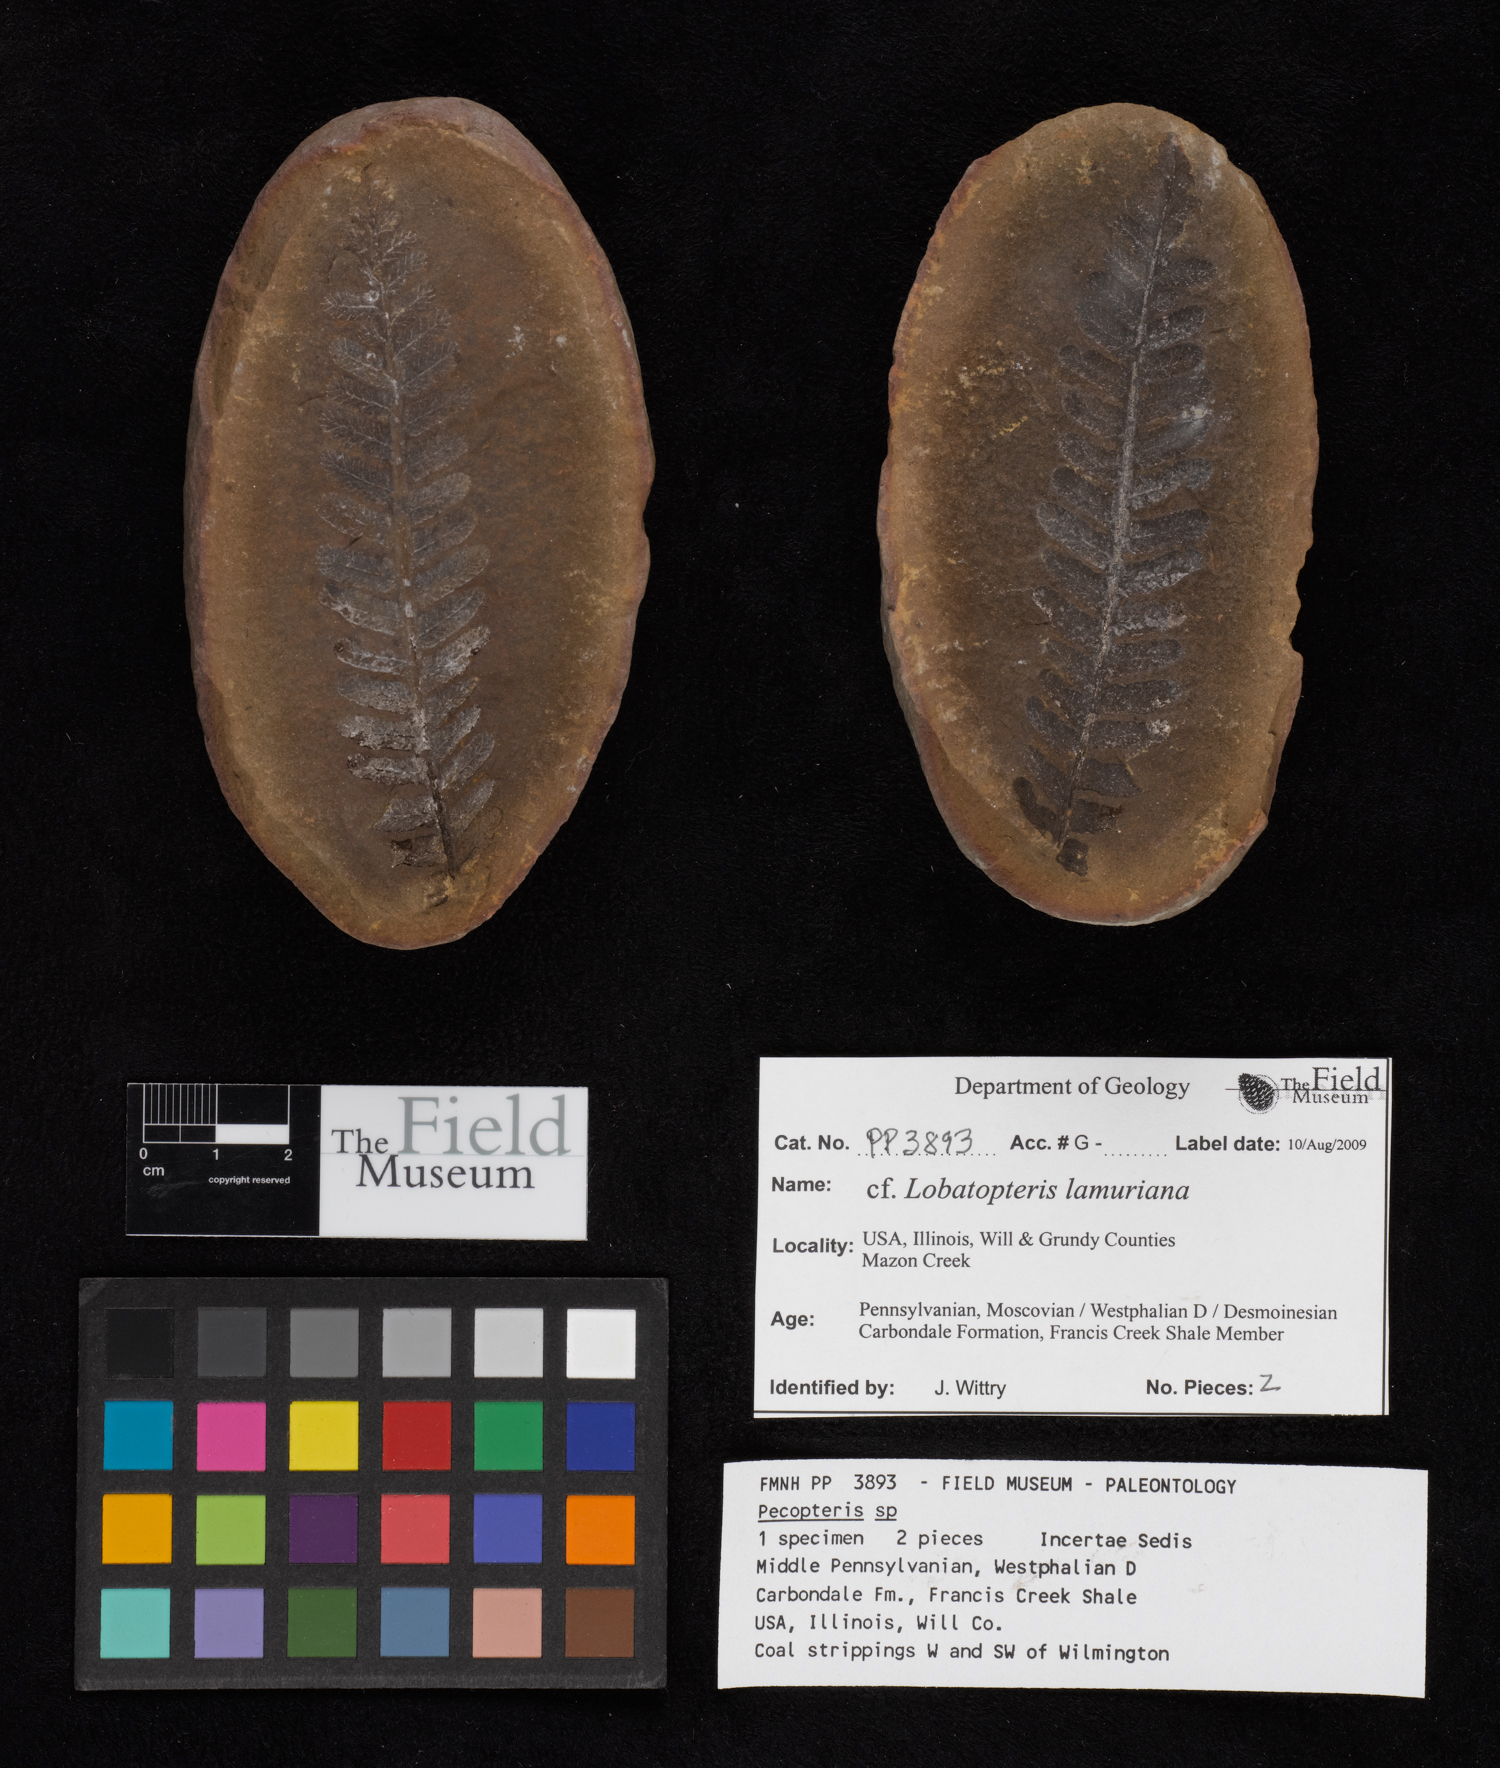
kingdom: Plantae
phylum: Tracheophyta
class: Polypodiopsida
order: Marattiales
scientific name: Marattiales
